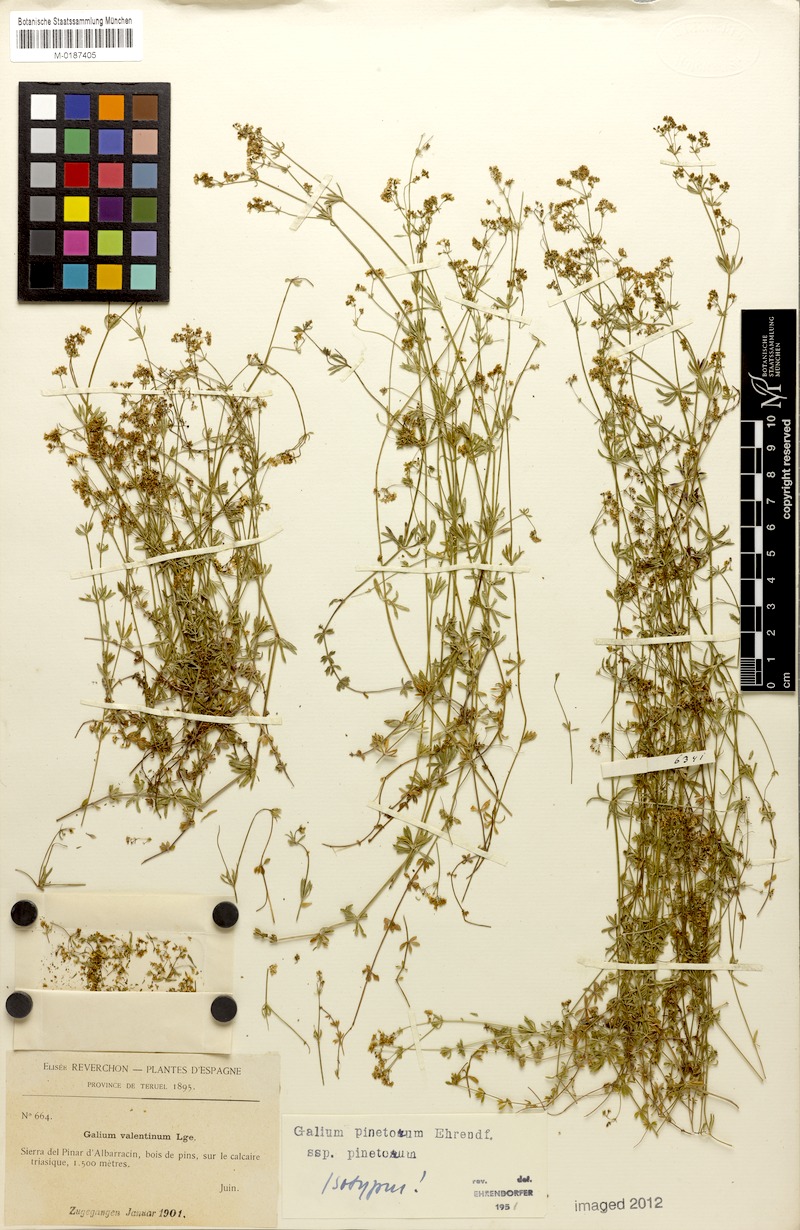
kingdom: Plantae
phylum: Tracheophyta
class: Magnoliopsida
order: Gentianales
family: Rubiaceae
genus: Galium
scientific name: Galium estebanii
